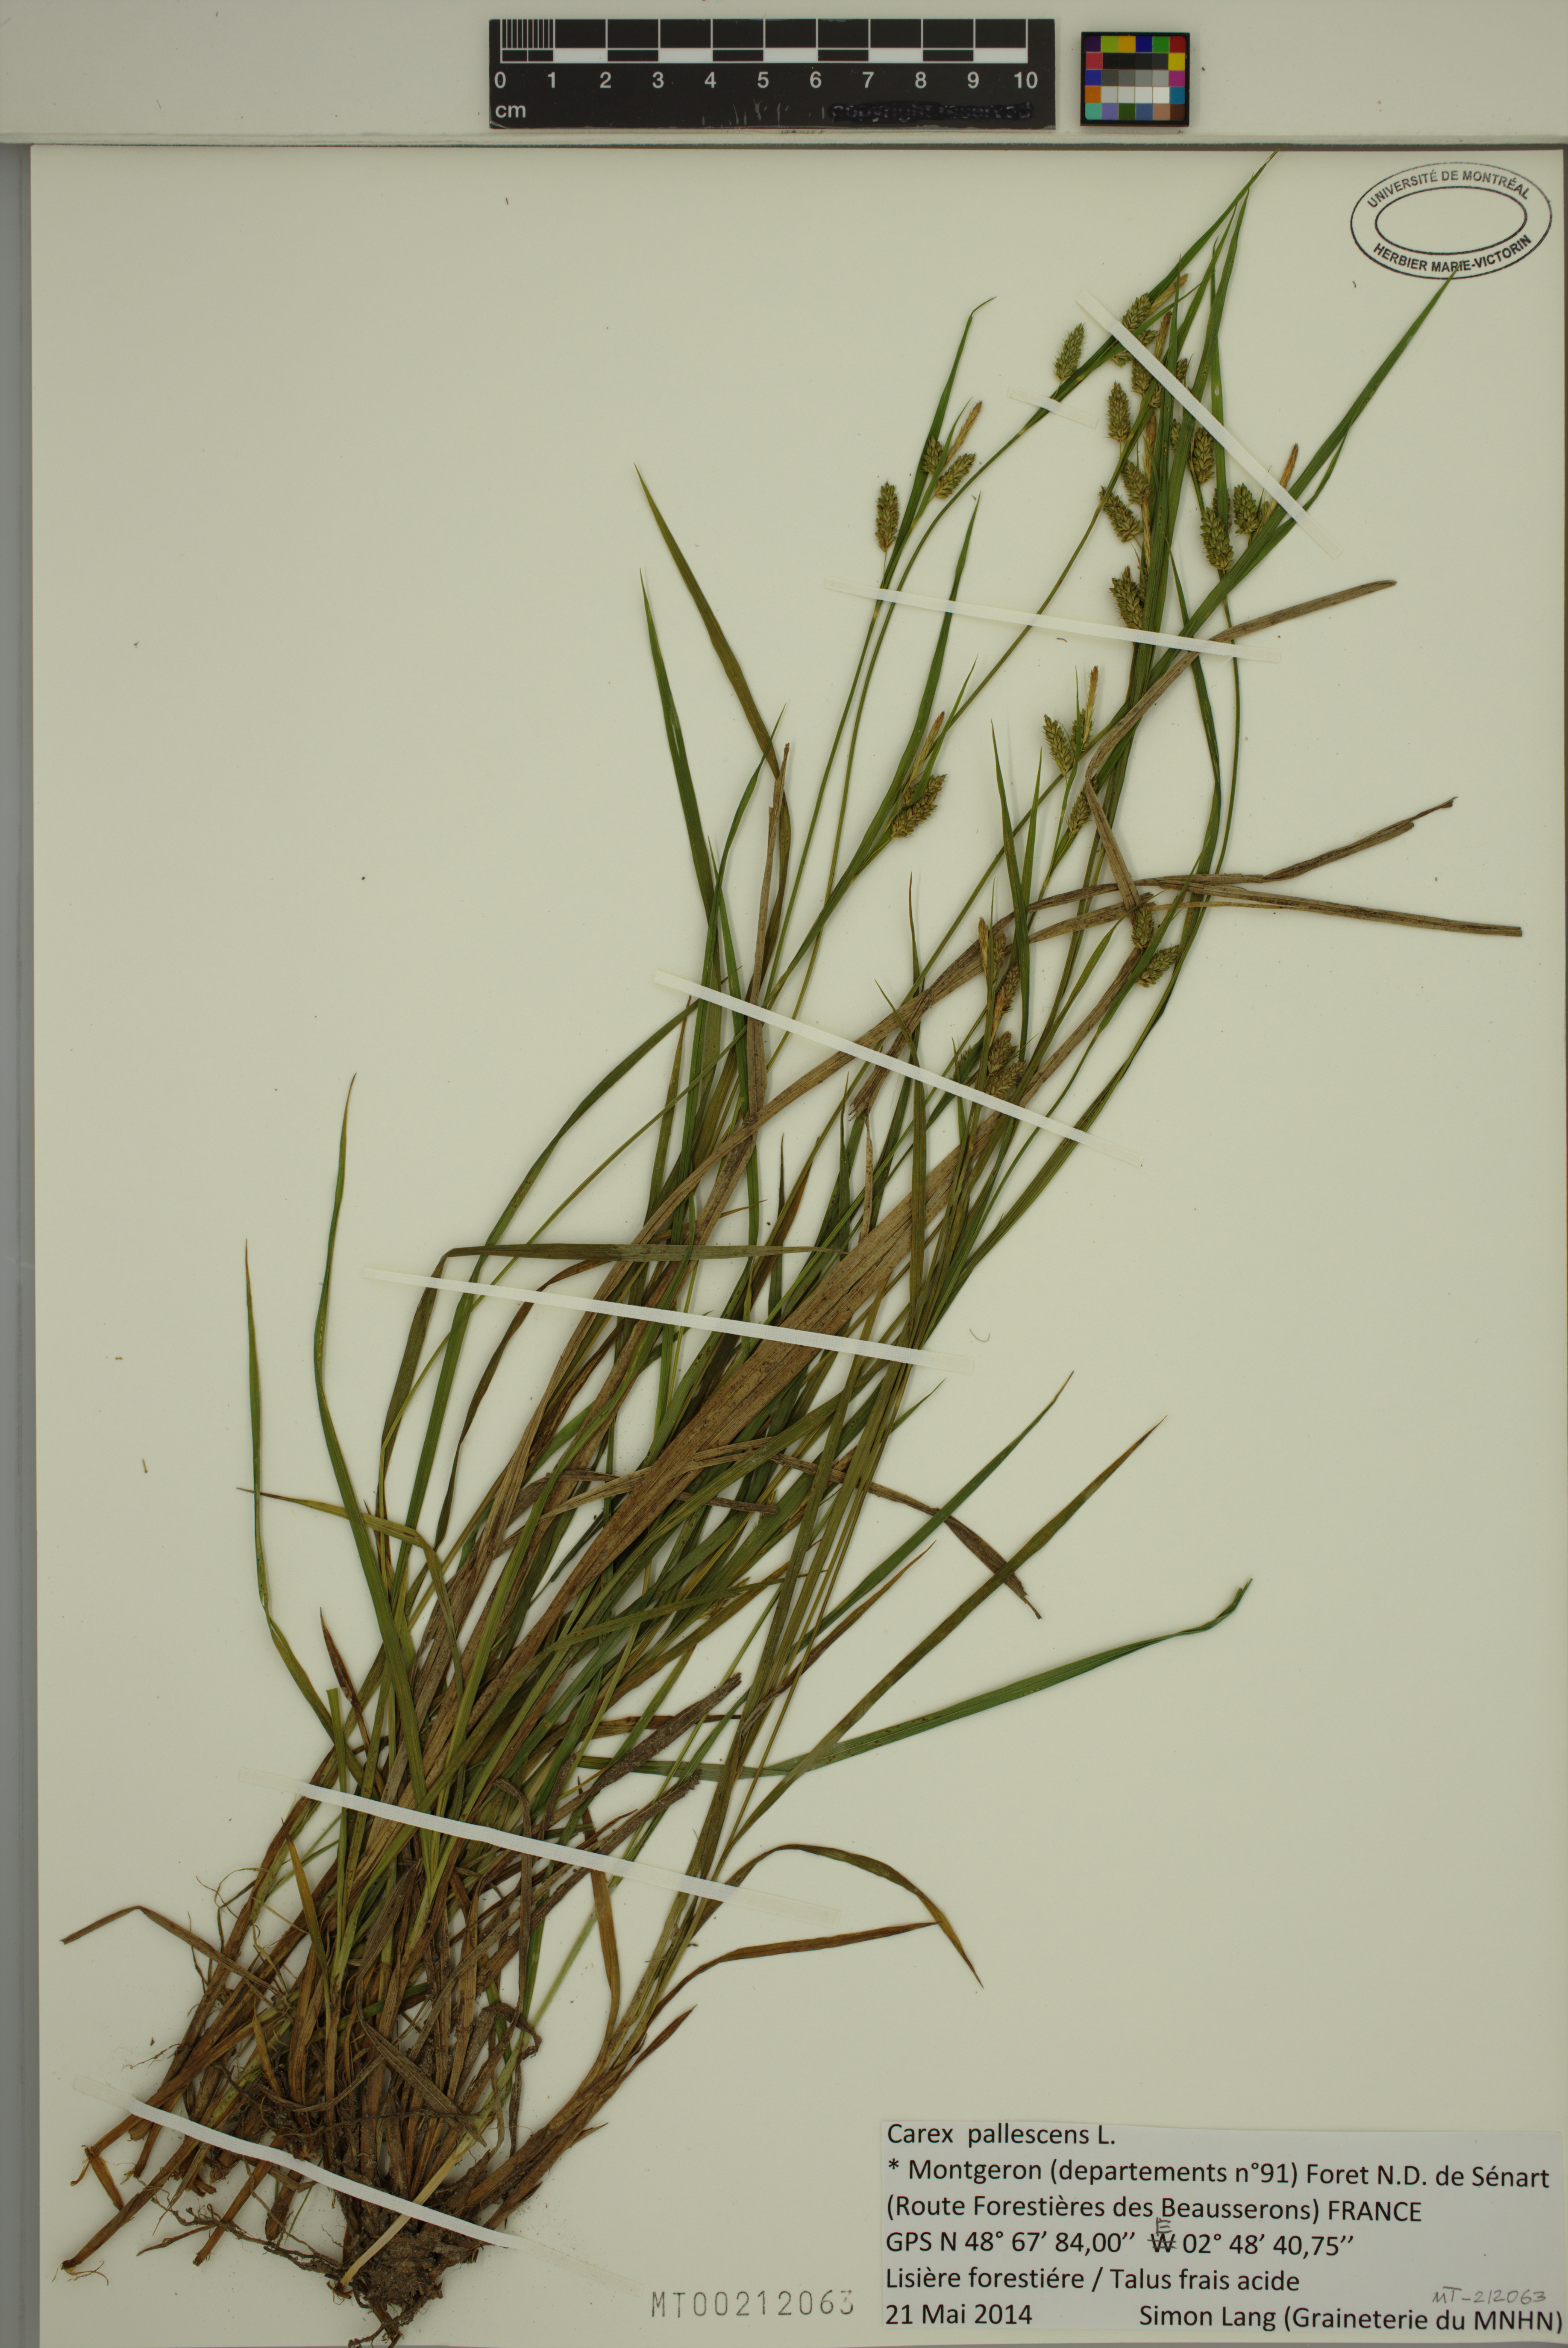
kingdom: Plantae
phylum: Tracheophyta
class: Liliopsida
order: Poales
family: Cyperaceae
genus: Carex
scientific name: Carex pallescens
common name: Pale sedge
